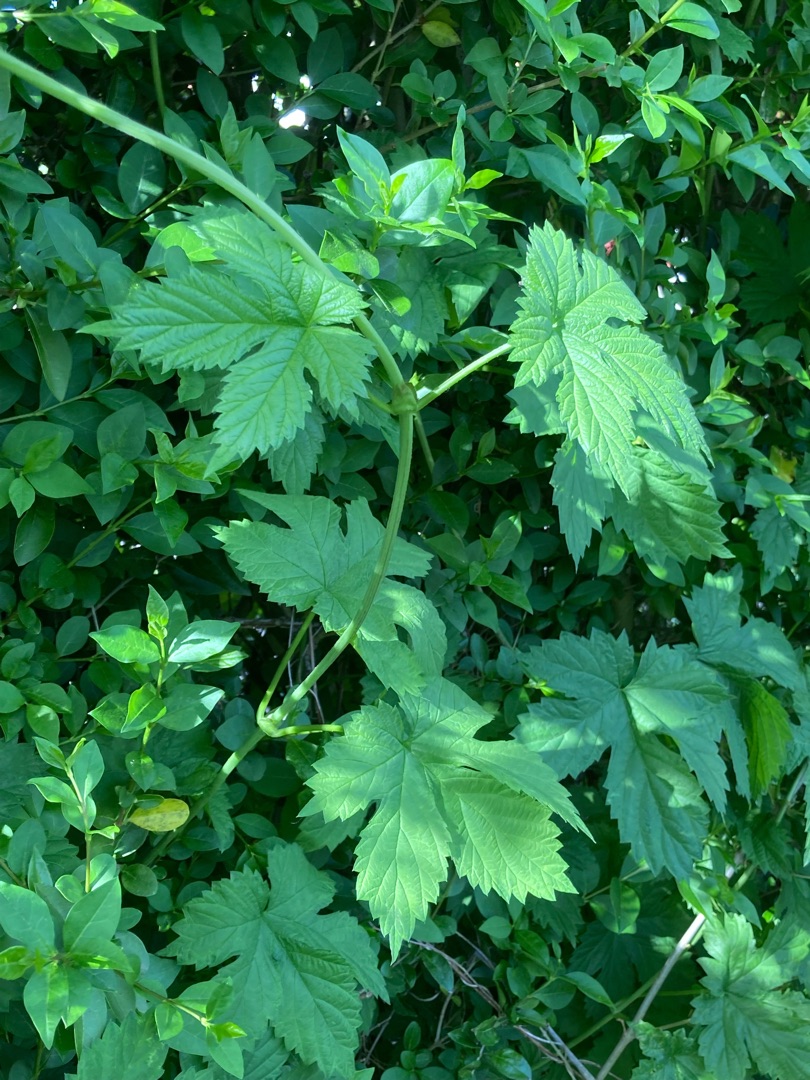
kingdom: Plantae
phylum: Tracheophyta
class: Magnoliopsida
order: Rosales
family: Cannabaceae
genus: Humulus
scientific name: Humulus lupulus
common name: Humle
